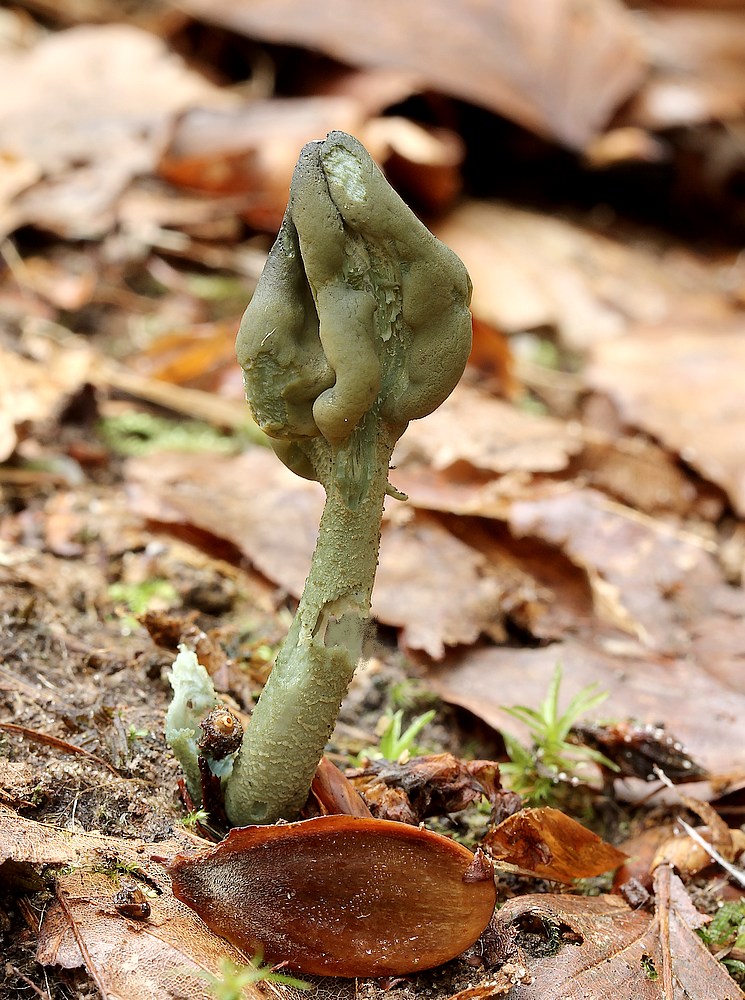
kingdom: Fungi
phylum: Ascomycota
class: Leotiomycetes
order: Leotiales
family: Leotiaceae
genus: Microglossum
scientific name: Microglossum griseoviride
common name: grågrøn farvetunge
